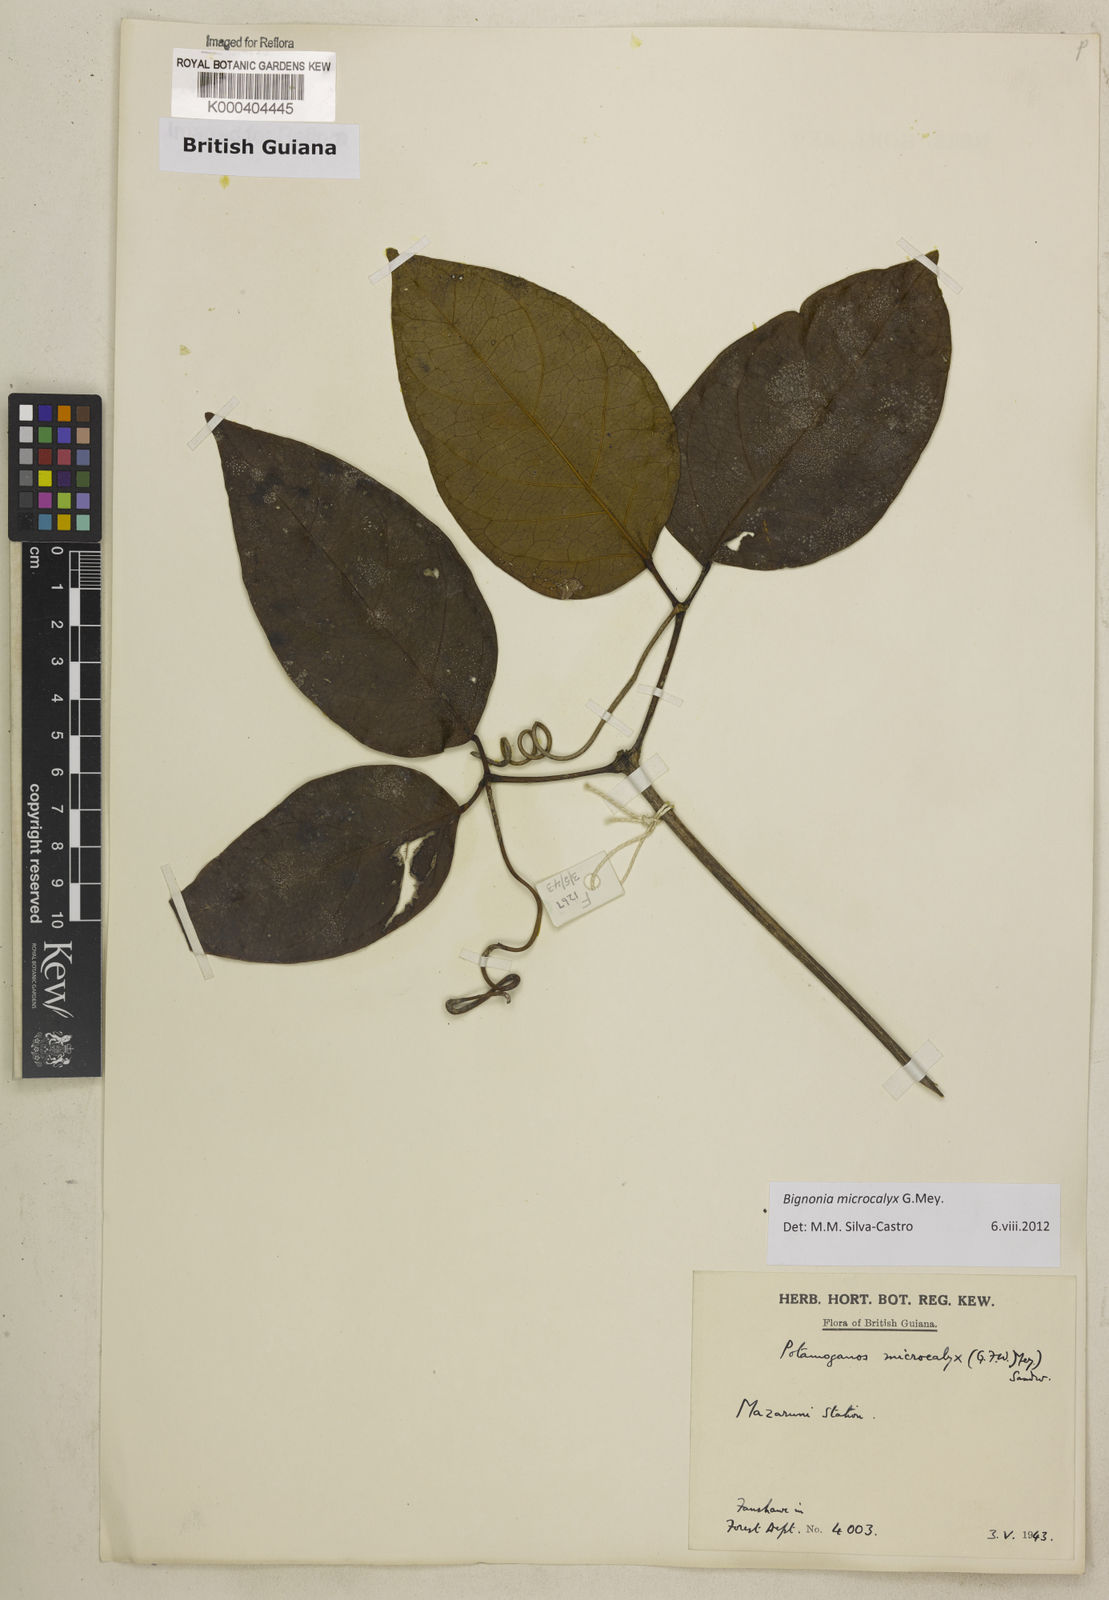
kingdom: Plantae
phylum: Tracheophyta
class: Magnoliopsida
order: Lamiales
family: Bignoniaceae
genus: Bignonia
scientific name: Bignonia microcalyx
